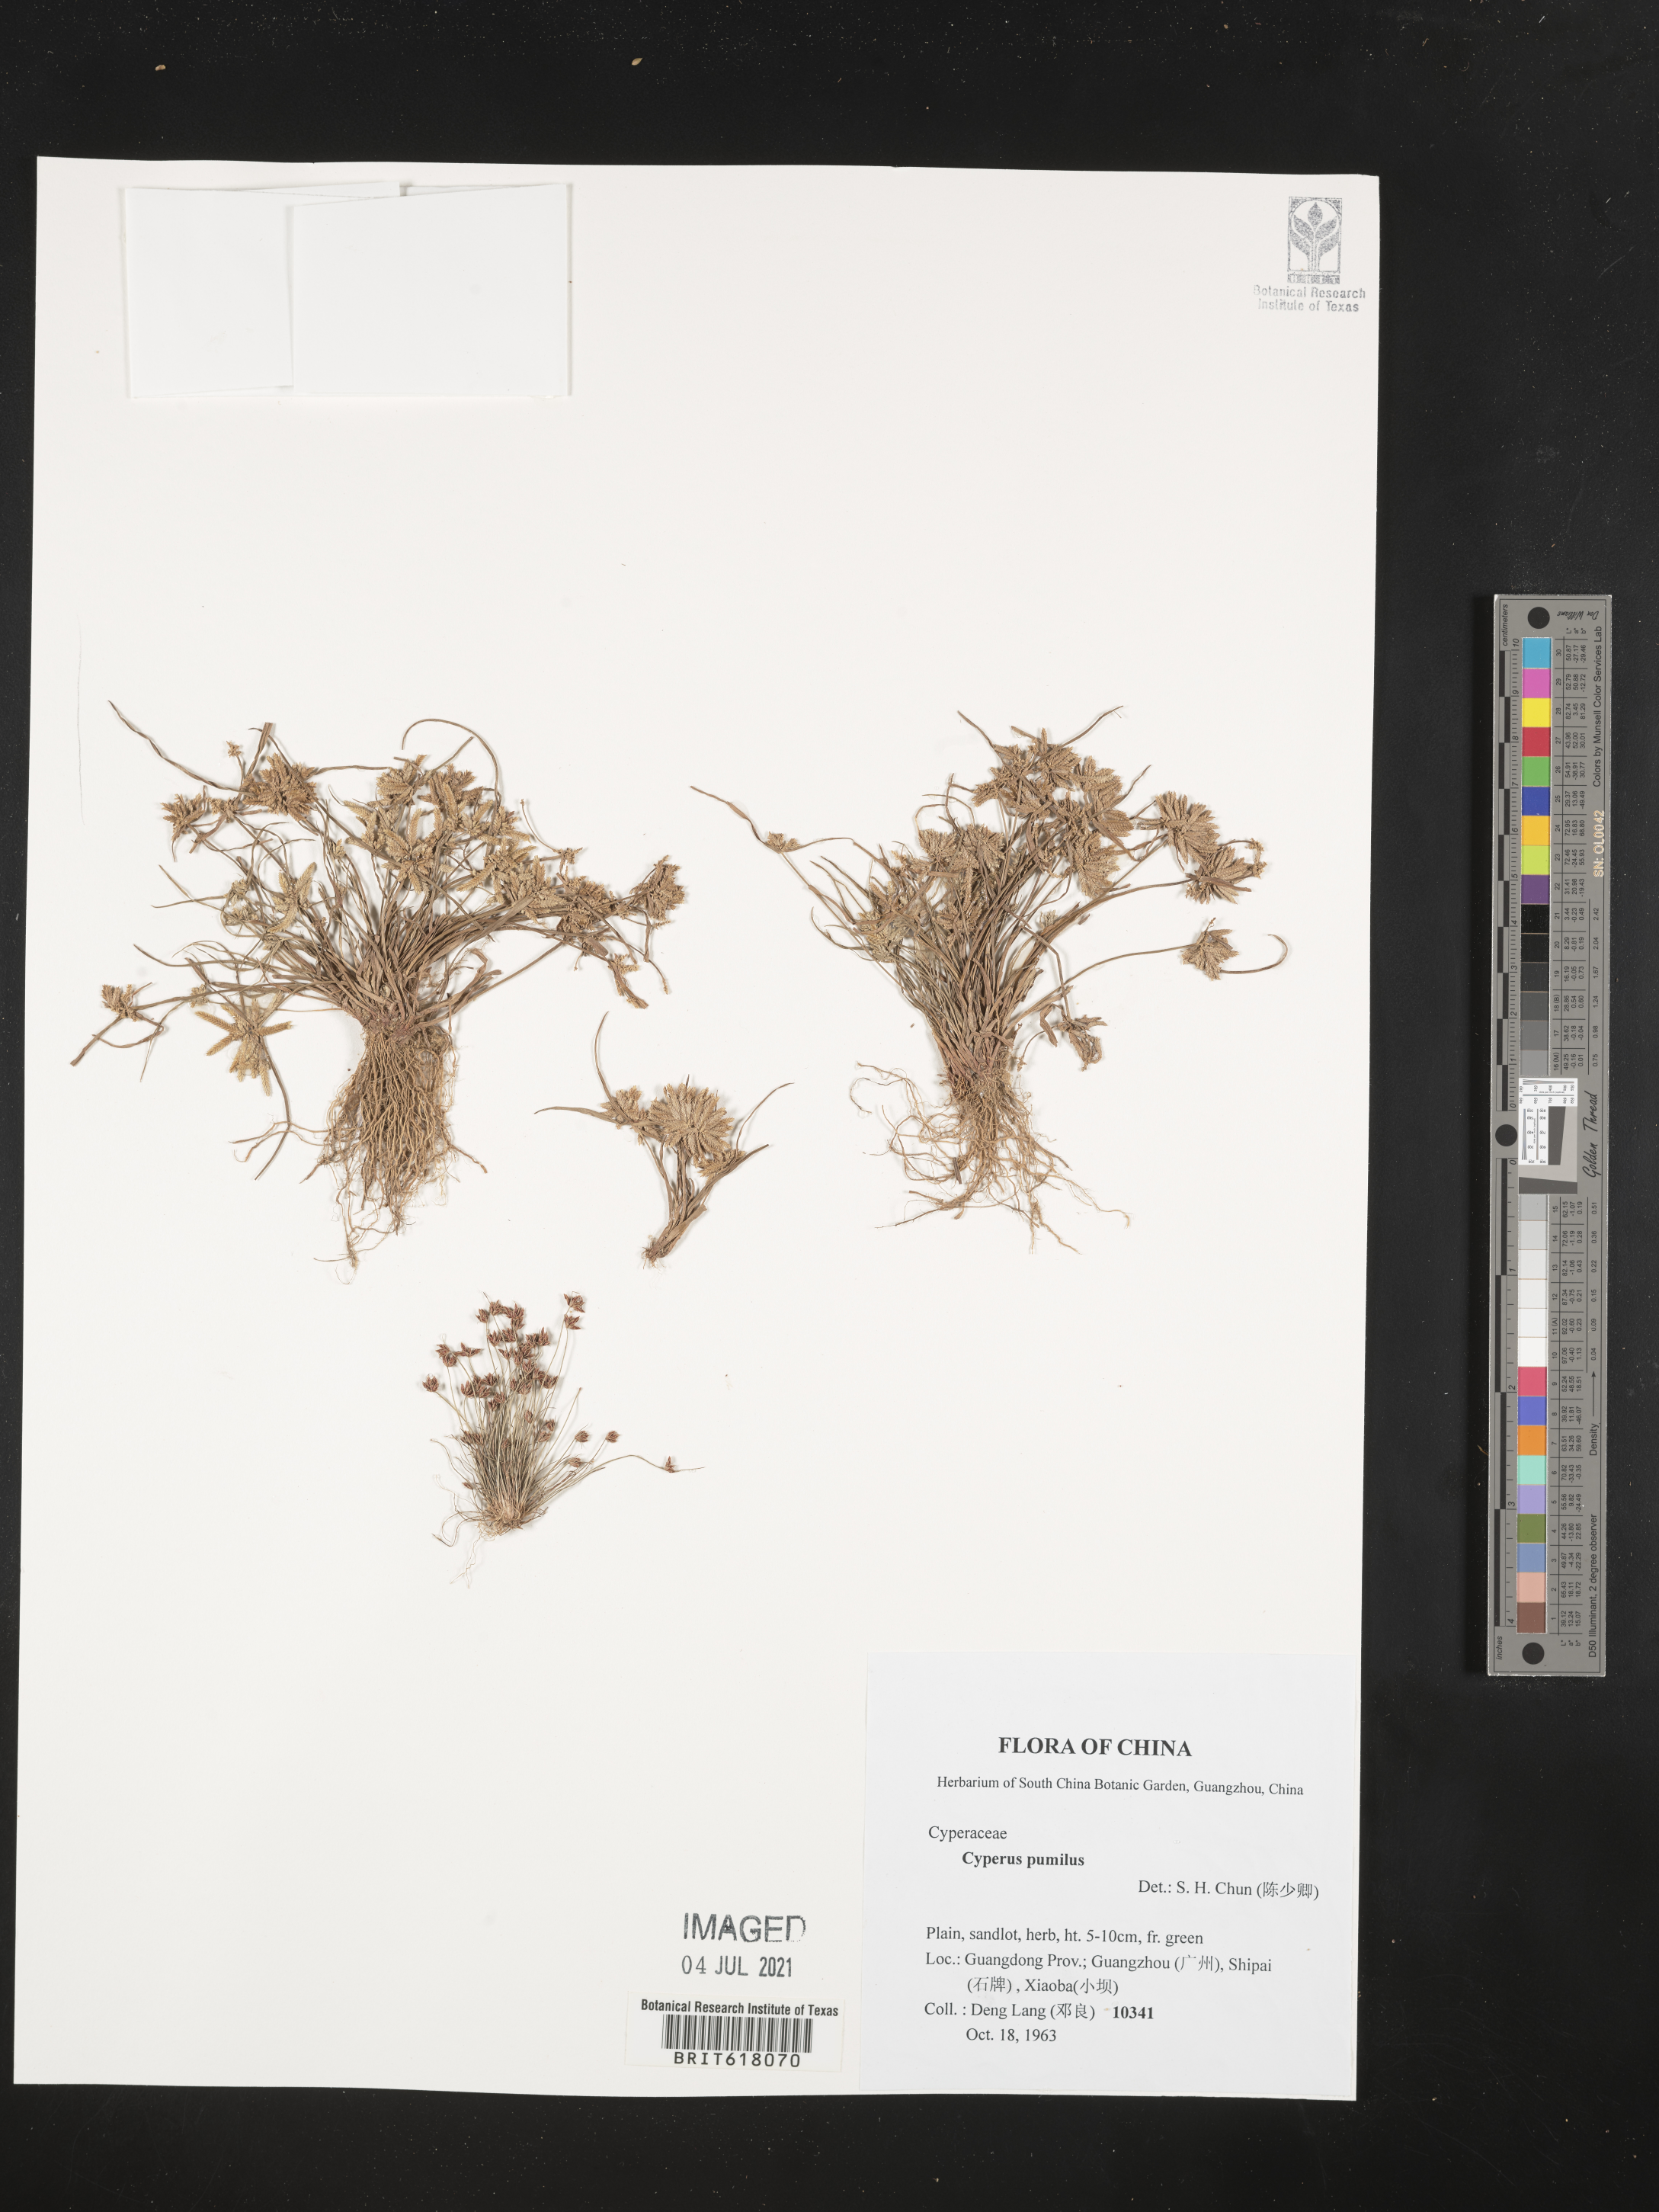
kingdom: Plantae
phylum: Tracheophyta
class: Liliopsida
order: Poales
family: Cyperaceae
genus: Cyperus
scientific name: Cyperus pumilus
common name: Low flatsedge
